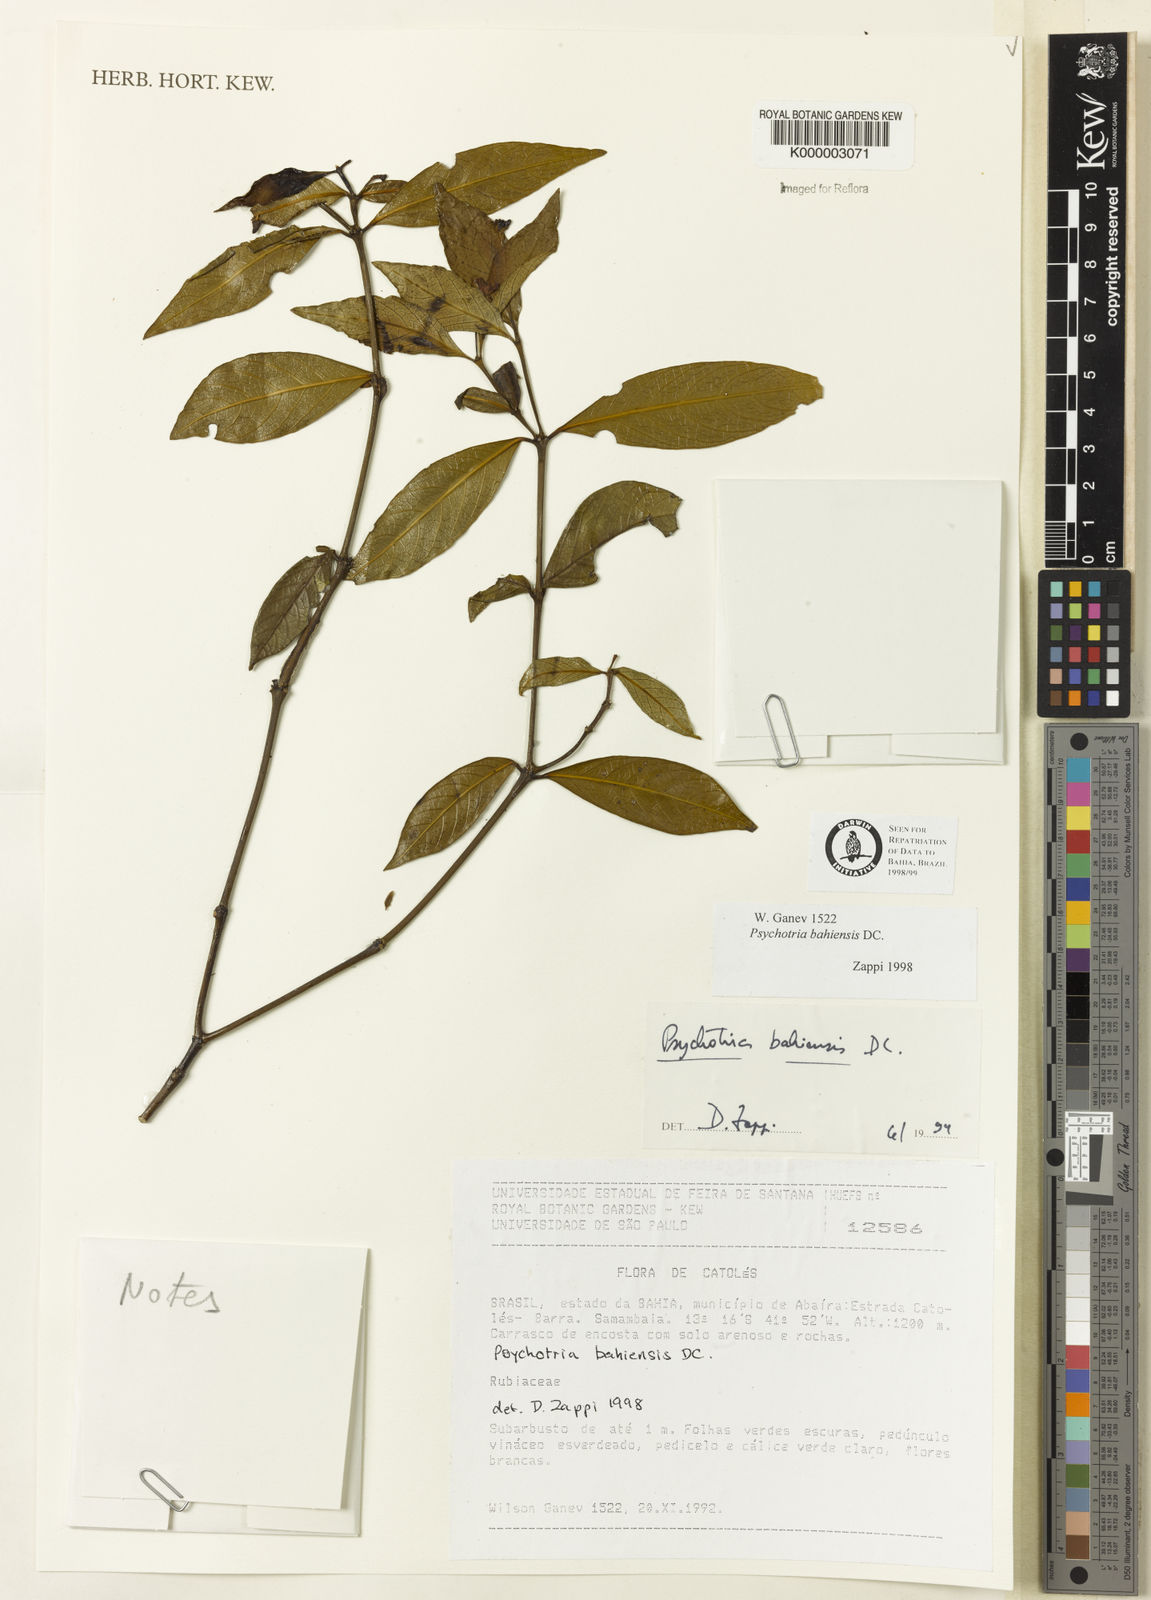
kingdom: Plantae
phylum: Tracheophyta
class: Magnoliopsida
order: Gentianales
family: Rubiaceae
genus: Psychotria
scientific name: Psychotria bahiensis
